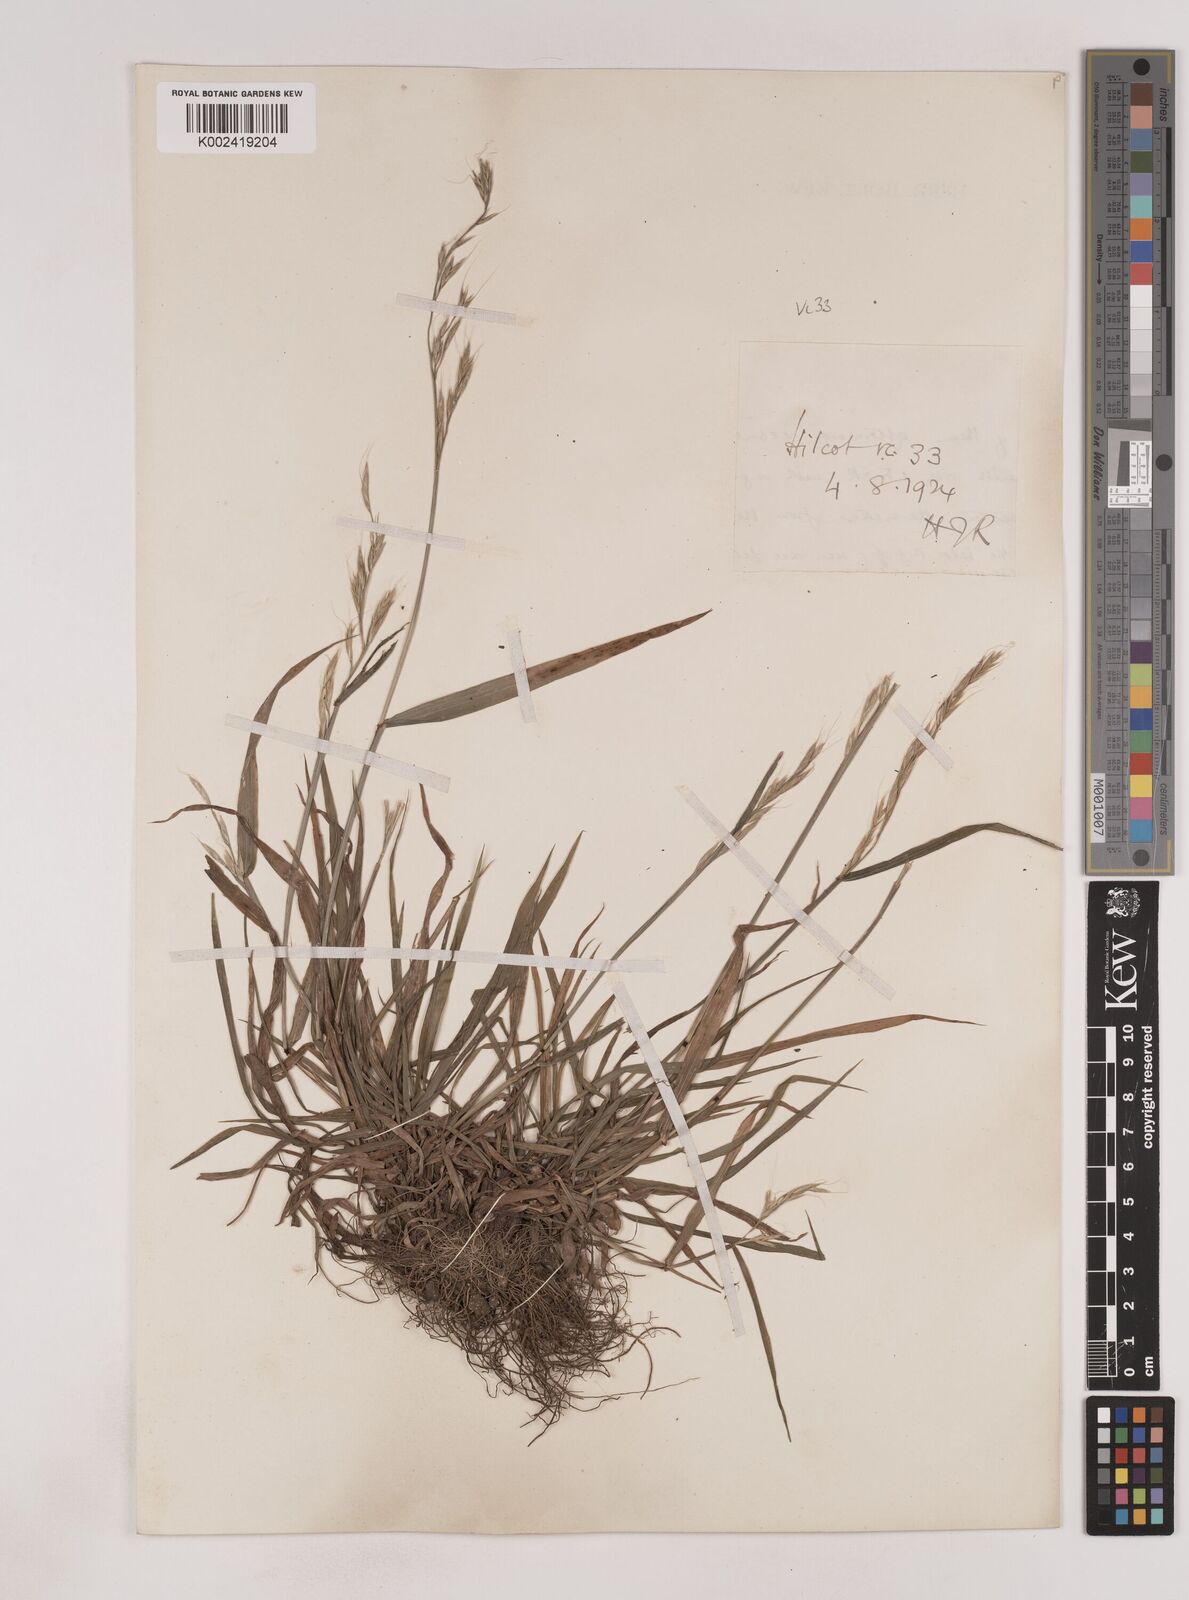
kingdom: Plantae
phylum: Tracheophyta
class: Liliopsida
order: Poales
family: Poaceae
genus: Lolium
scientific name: Lolium giganteum
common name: Giant fescue
